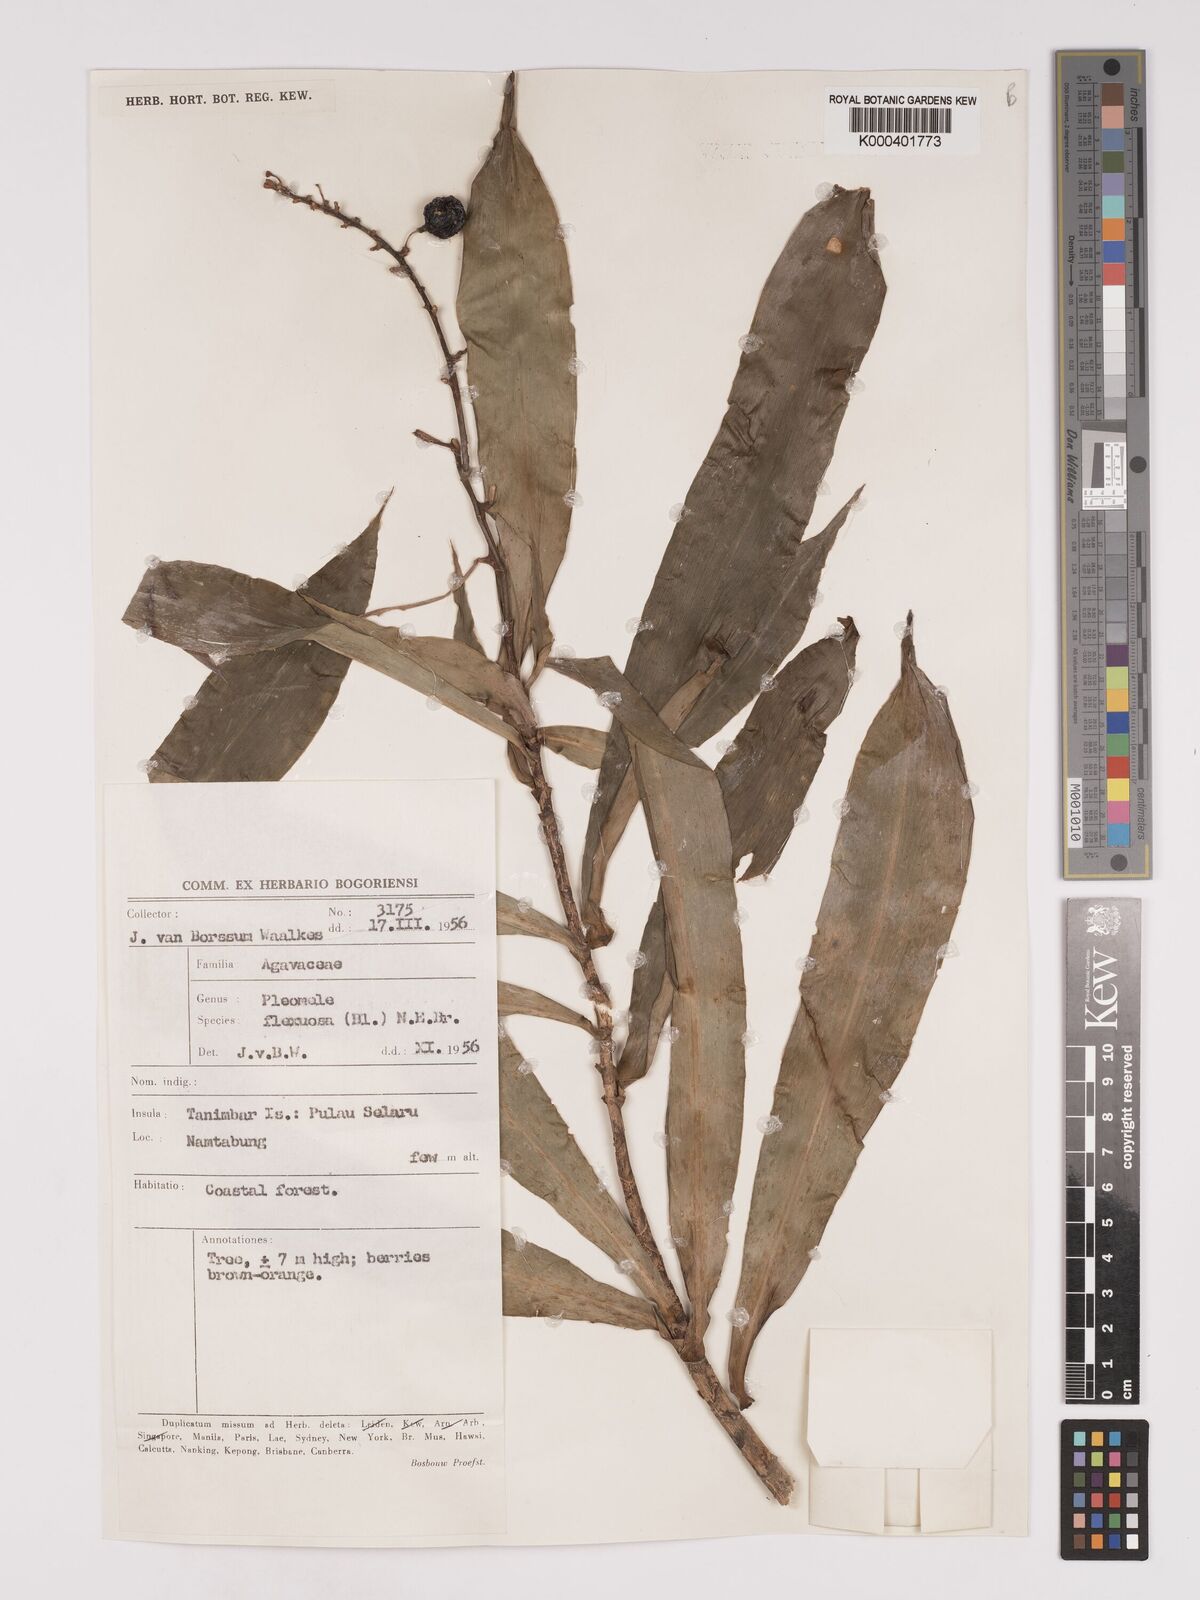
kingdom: Plantae
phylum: Tracheophyta
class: Liliopsida
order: Asparagales
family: Asparagaceae
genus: Dracaena
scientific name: Dracaena reflexa
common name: Song-of-india
